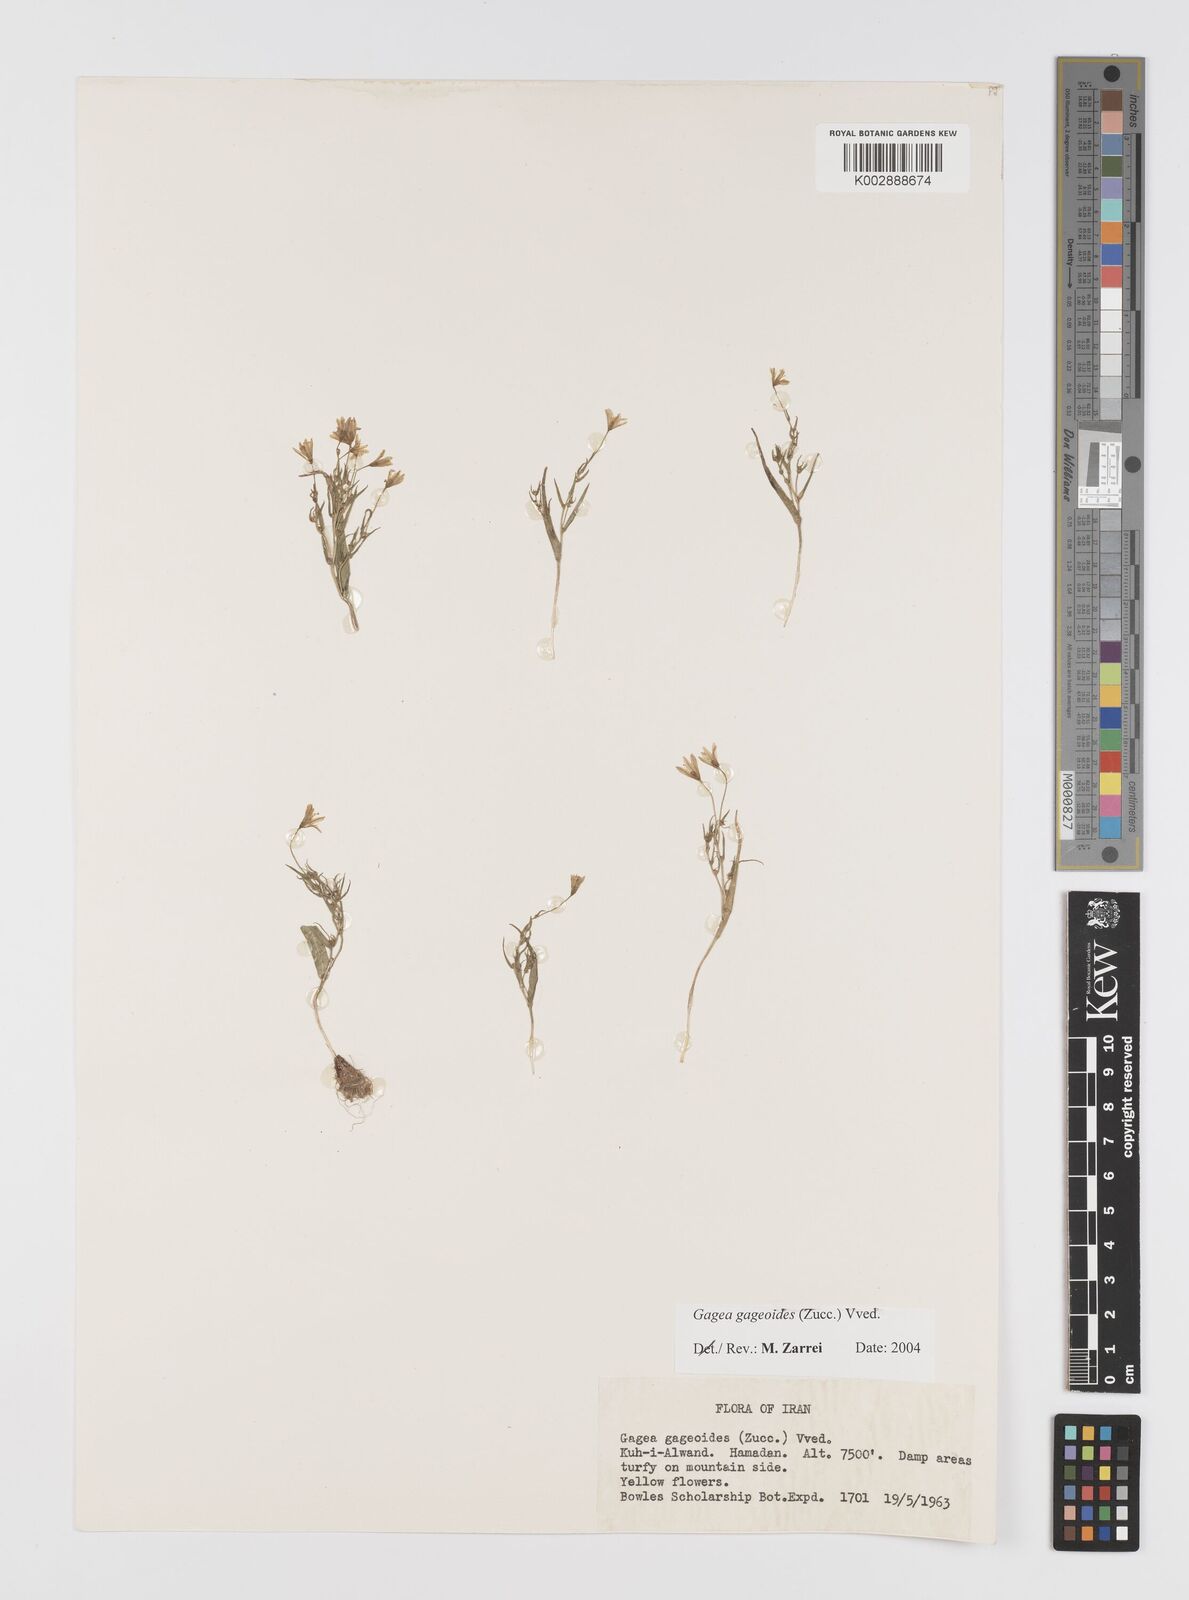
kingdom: Plantae
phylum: Tracheophyta
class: Liliopsida
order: Liliales
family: Liliaceae
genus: Gagea
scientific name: Gagea gageoides
